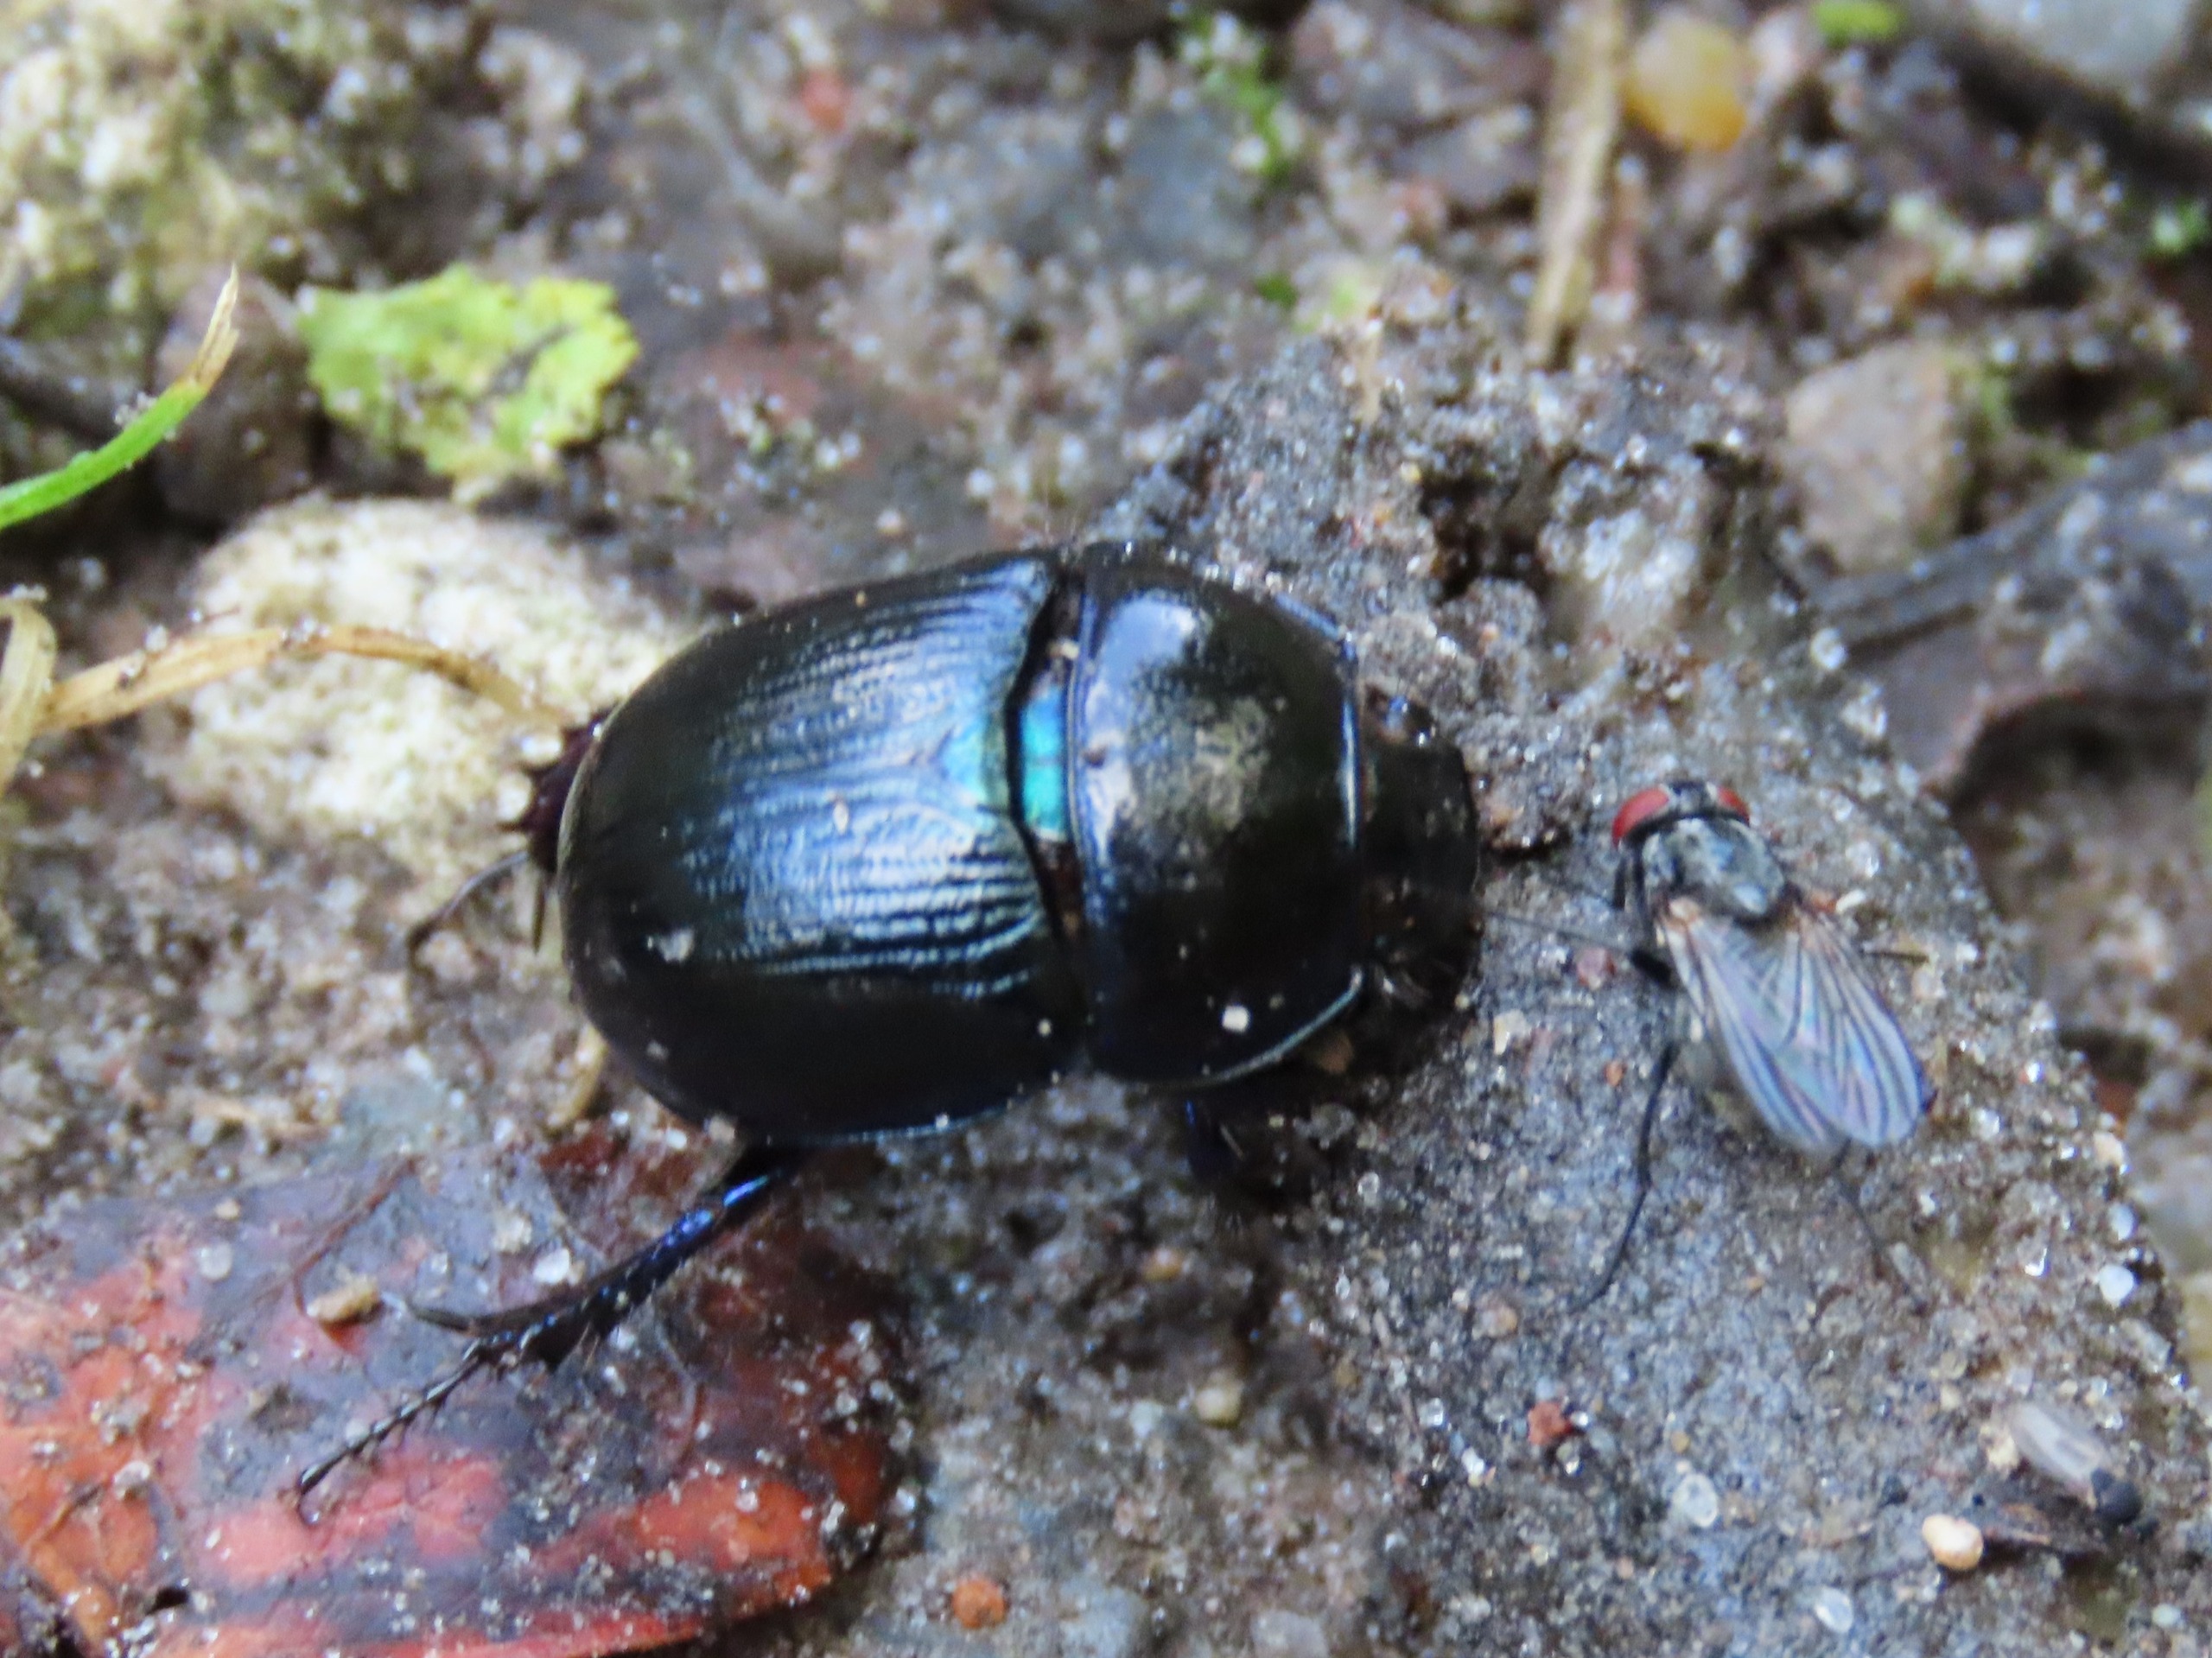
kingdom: Animalia
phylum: Arthropoda
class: Insecta
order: Coleoptera
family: Geotrupidae
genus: Anoplotrupes
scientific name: Anoplotrupes stercorosus
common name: Skovskarnbasse
